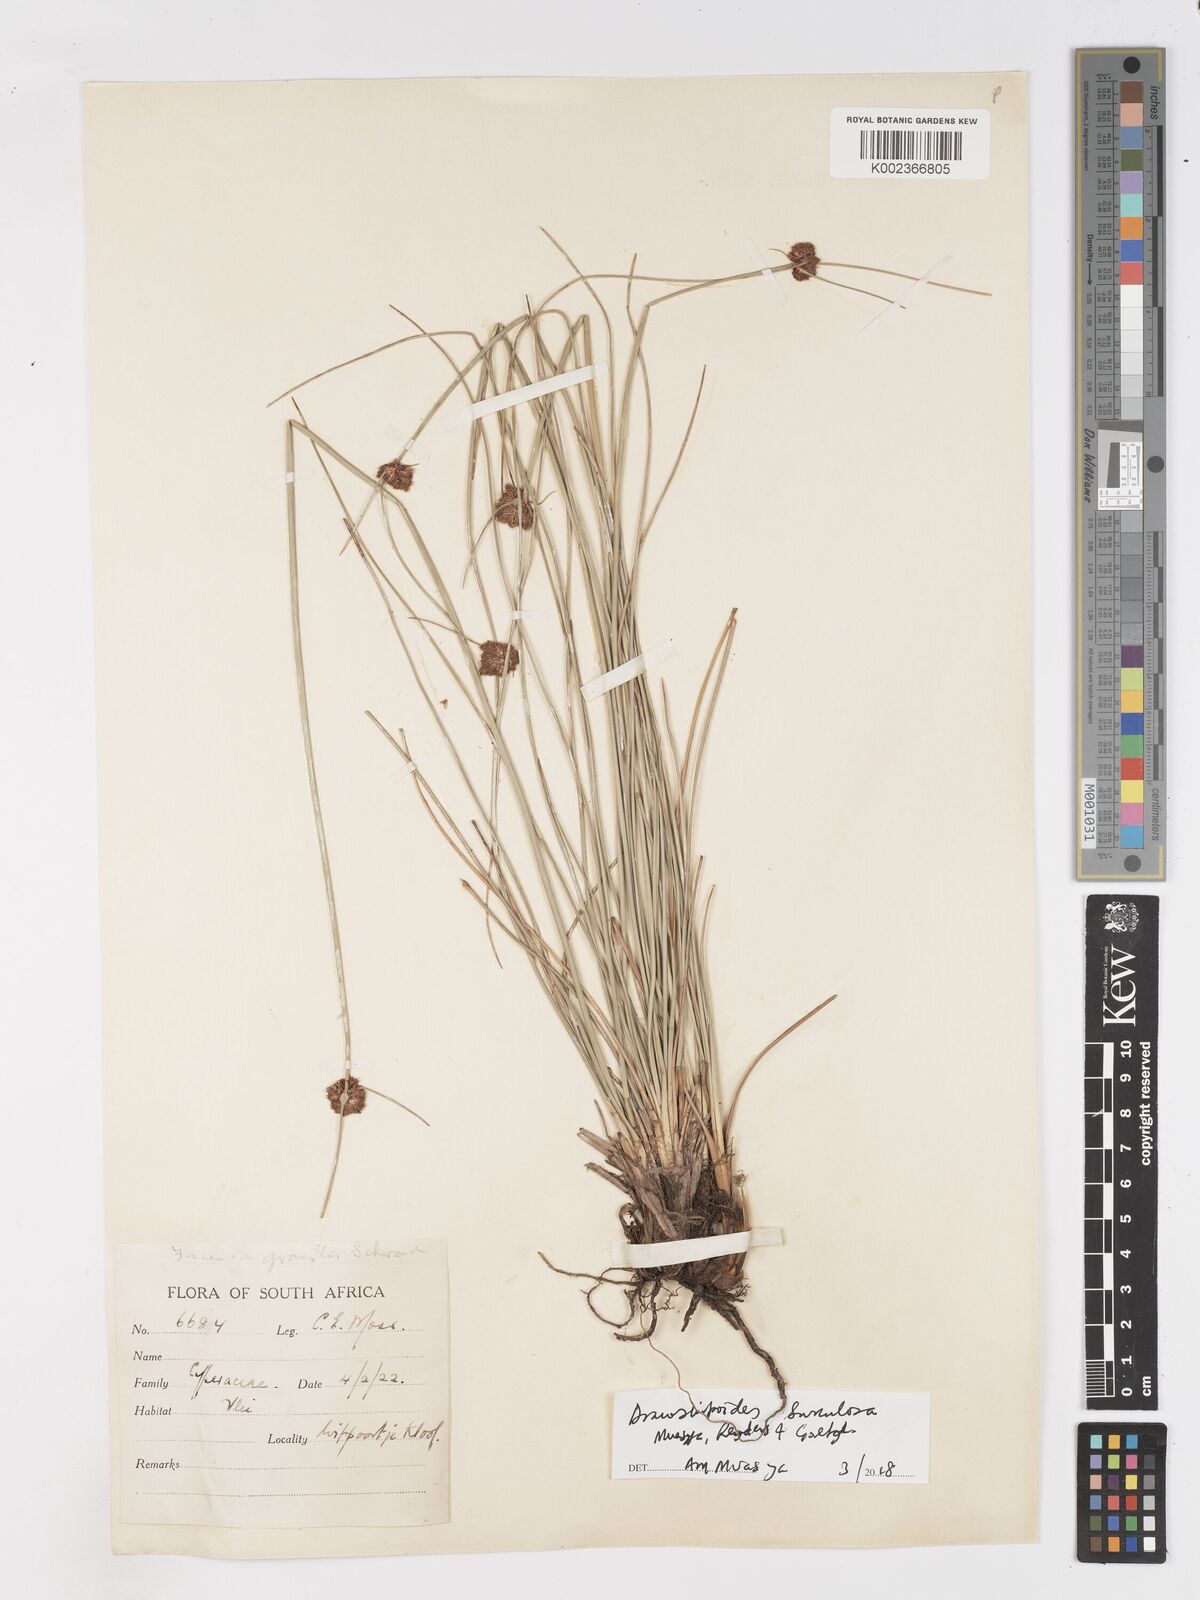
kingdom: Plantae
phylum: Tracheophyta
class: Liliopsida
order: Poales
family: Cyperaceae
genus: Dracoscirpoides
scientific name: Dracoscirpoides surculosa
